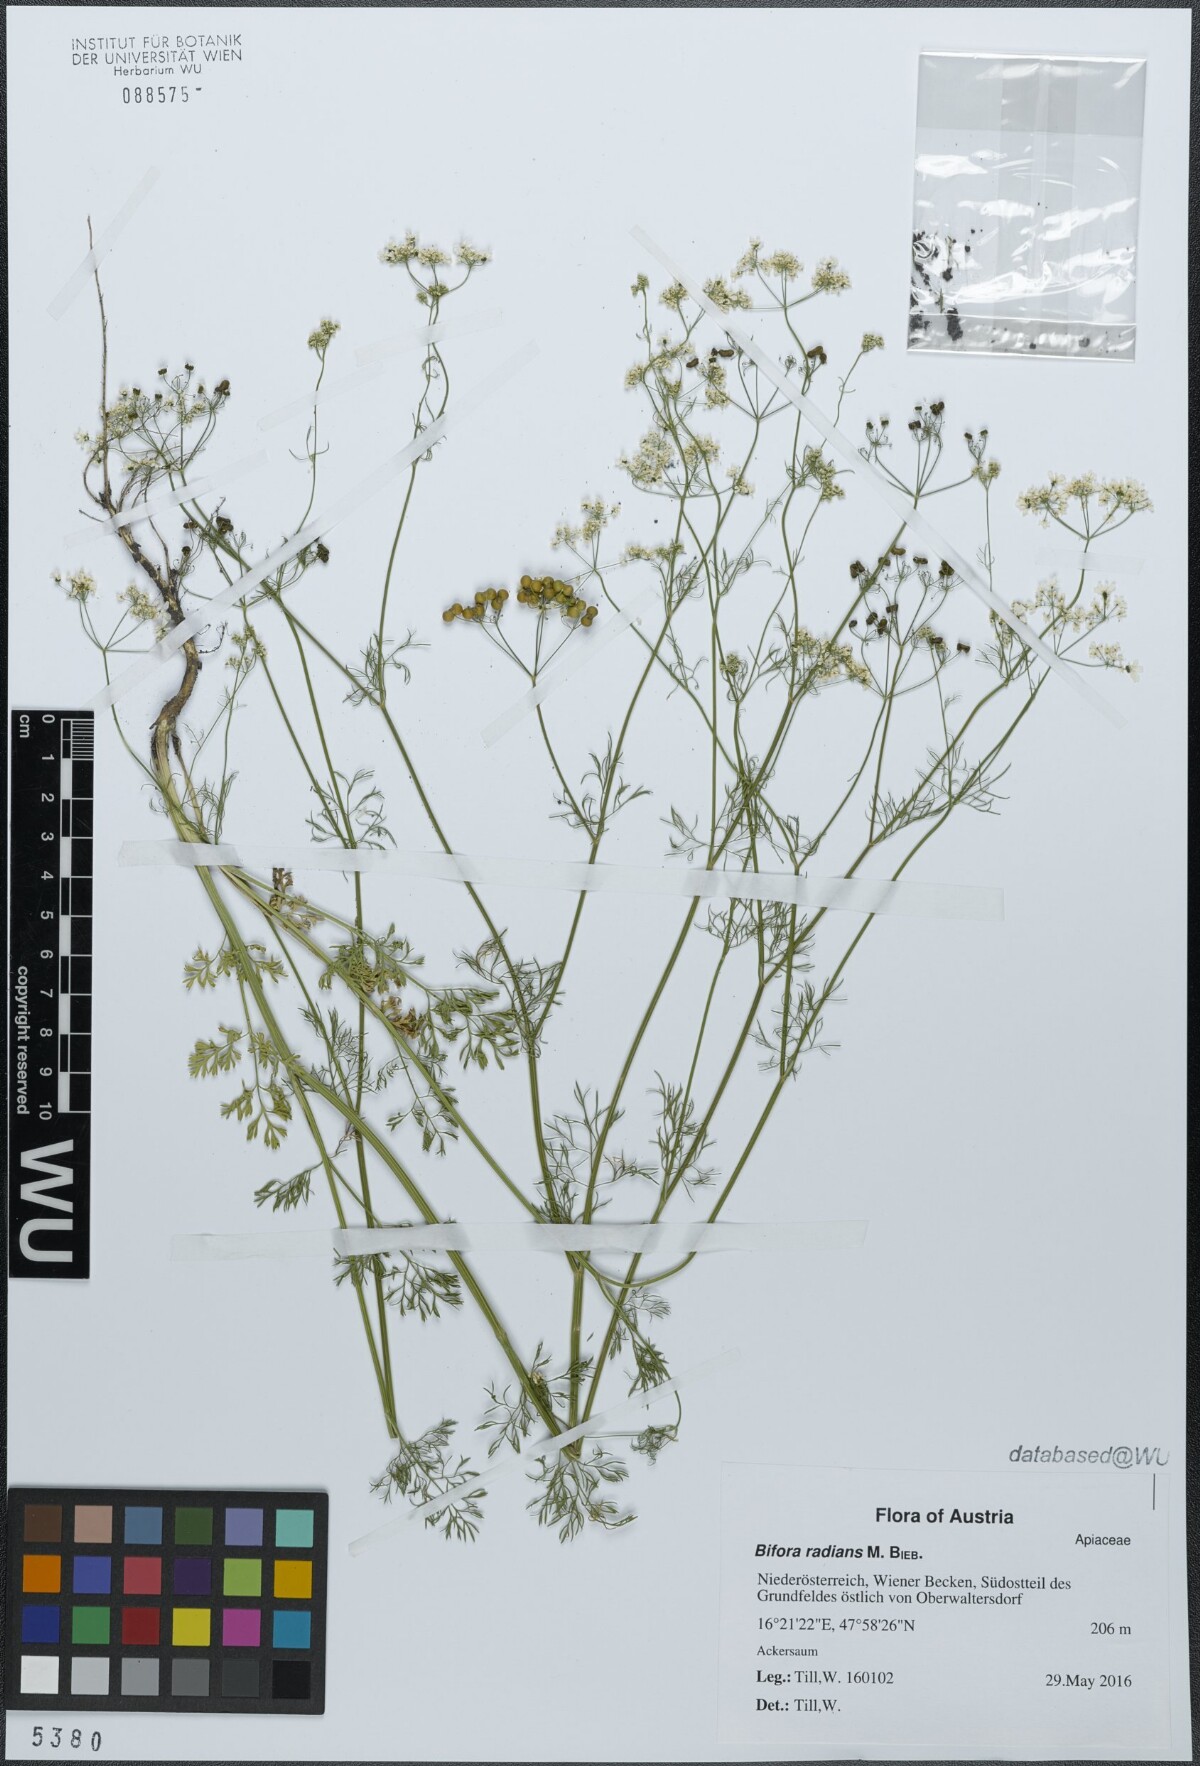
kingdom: Plantae
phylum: Tracheophyta
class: Magnoliopsida
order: Apiales
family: Apiaceae
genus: Bifora
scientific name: Bifora radians
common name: Wild bishop
